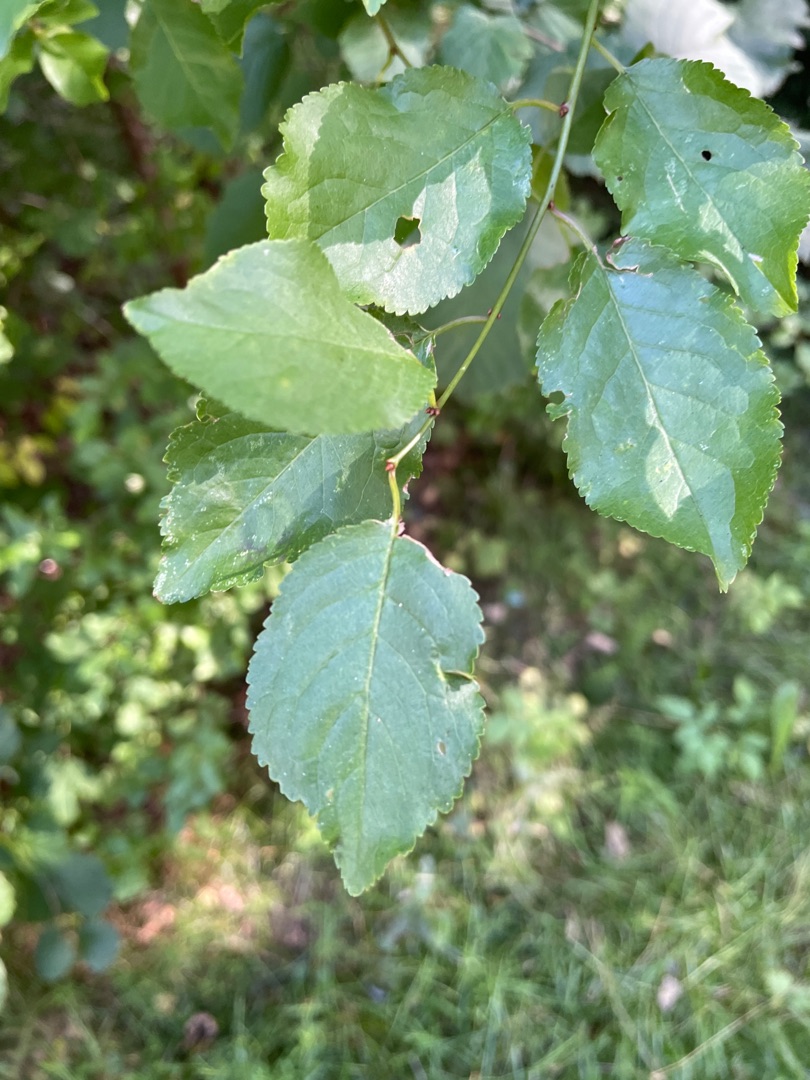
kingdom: Plantae
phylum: Tracheophyta
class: Magnoliopsida
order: Rosales
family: Rosaceae
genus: Prunus
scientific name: Prunus cerasifera
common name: Mirabel
